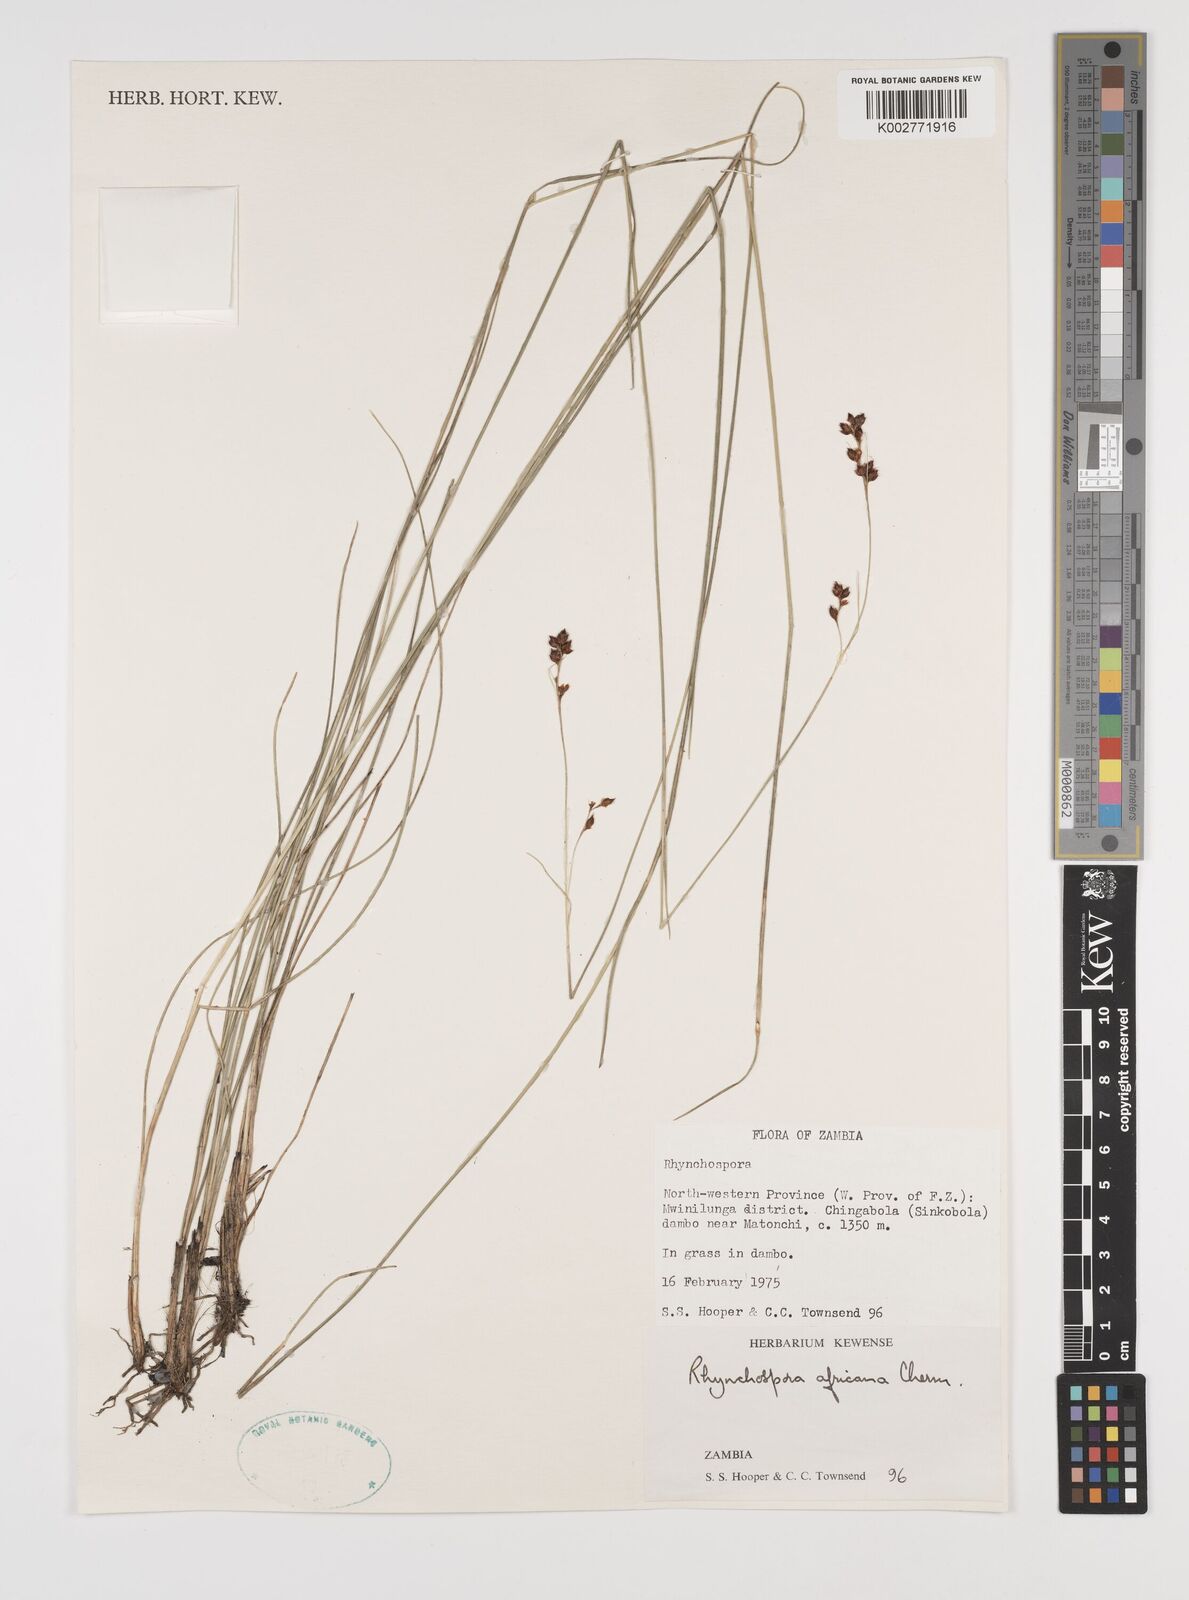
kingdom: Plantae
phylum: Tracheophyta
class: Liliopsida
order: Poales
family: Cyperaceae
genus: Rhynchospora
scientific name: Rhynchospora angolensis
